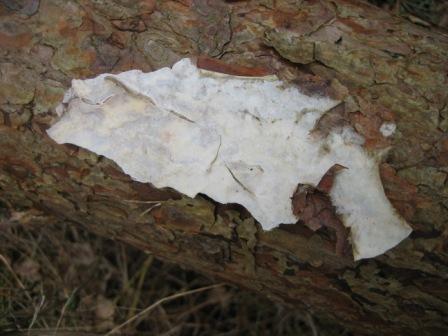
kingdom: Fungi
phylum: Basidiomycota
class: Agaricomycetes
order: Polyporales
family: Phanerochaetaceae
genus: Phlebiopsis
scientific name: Phlebiopsis gigantea
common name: kæmpebarksvamp
